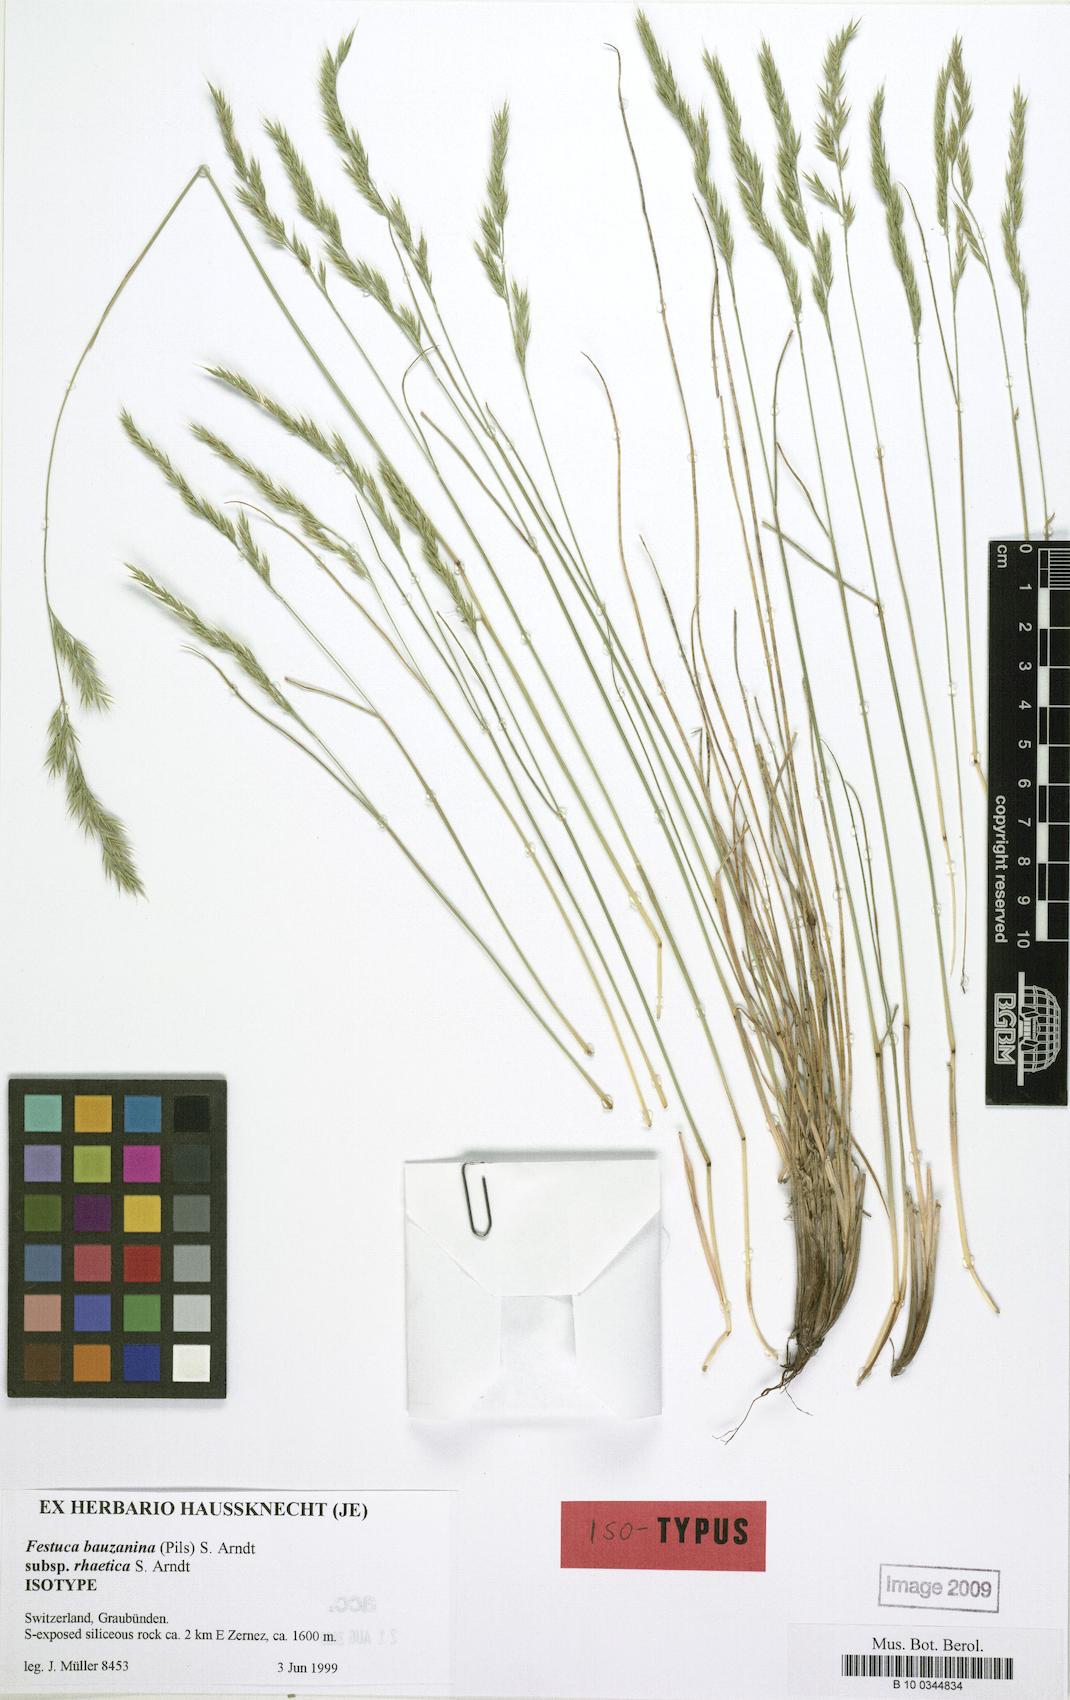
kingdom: Plantae
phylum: Tracheophyta
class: Liliopsida
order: Poales
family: Poaceae
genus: Festuca
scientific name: Festuca stricta
